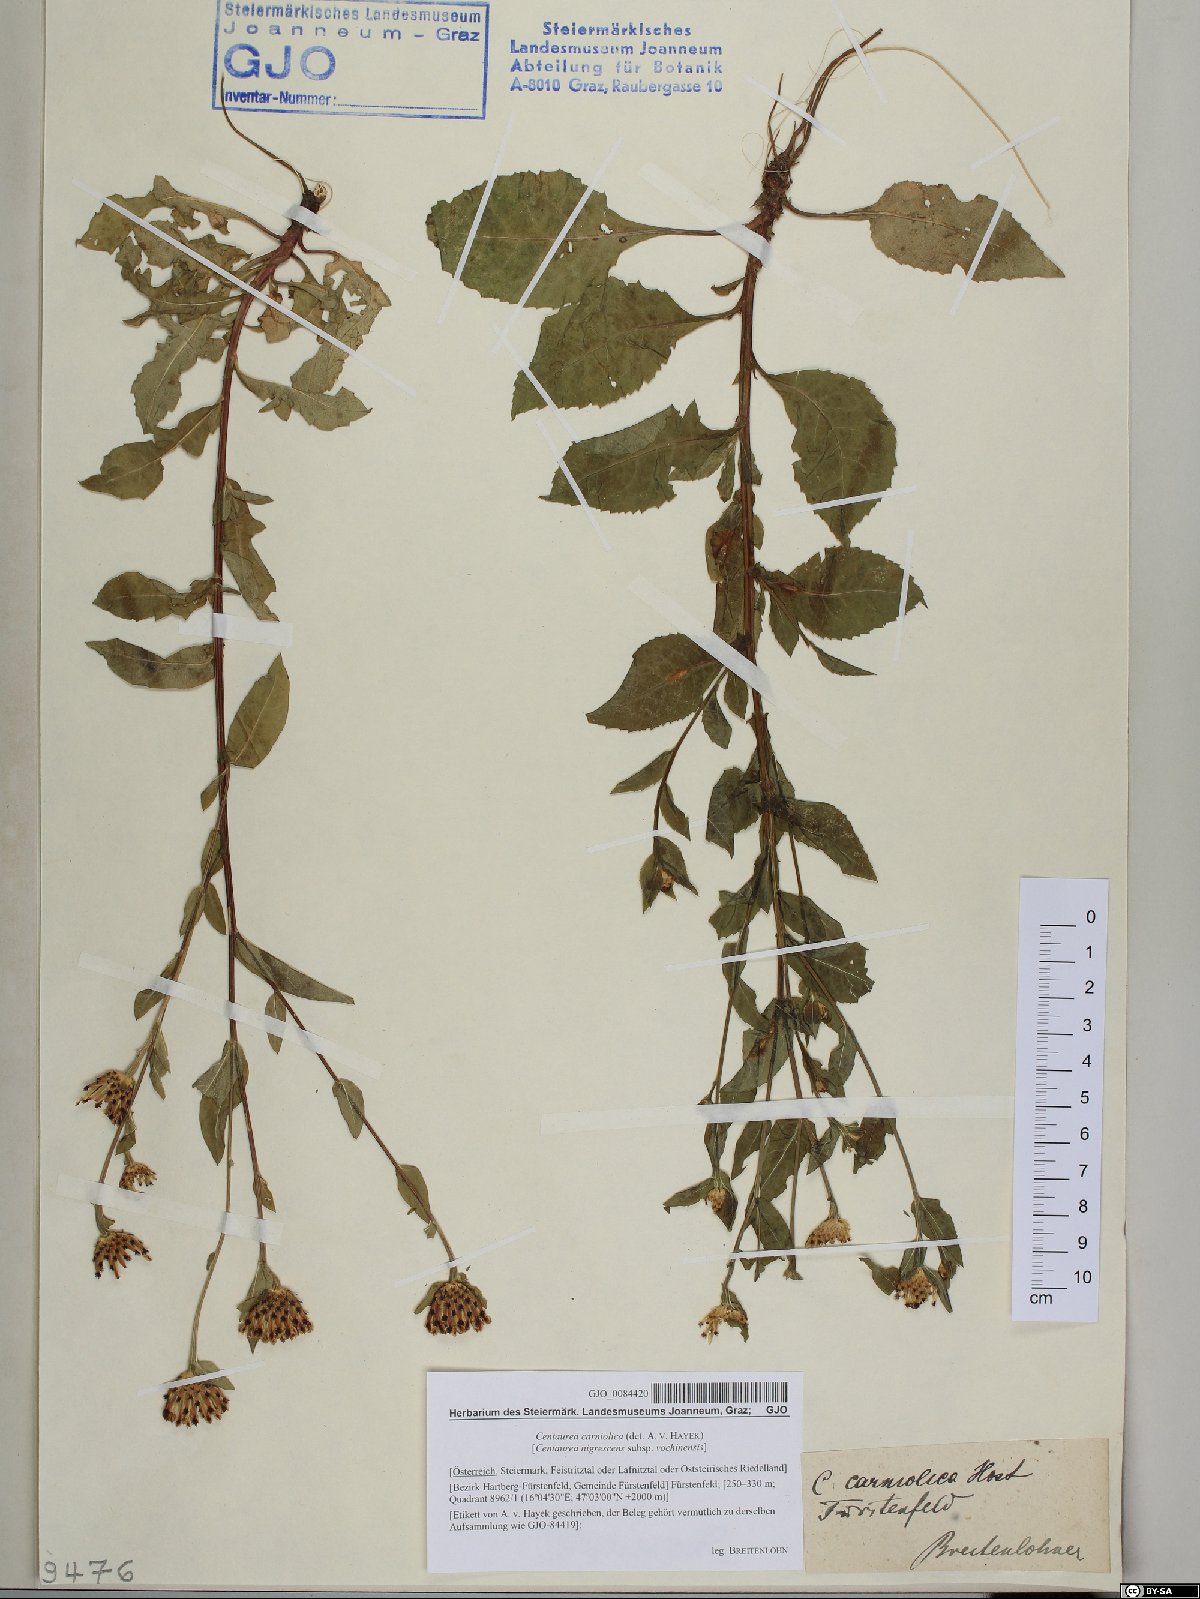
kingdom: Plantae
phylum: Tracheophyta
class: Magnoliopsida
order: Asterales
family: Asteraceae
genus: Centaurea
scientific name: Centaurea carniolica
